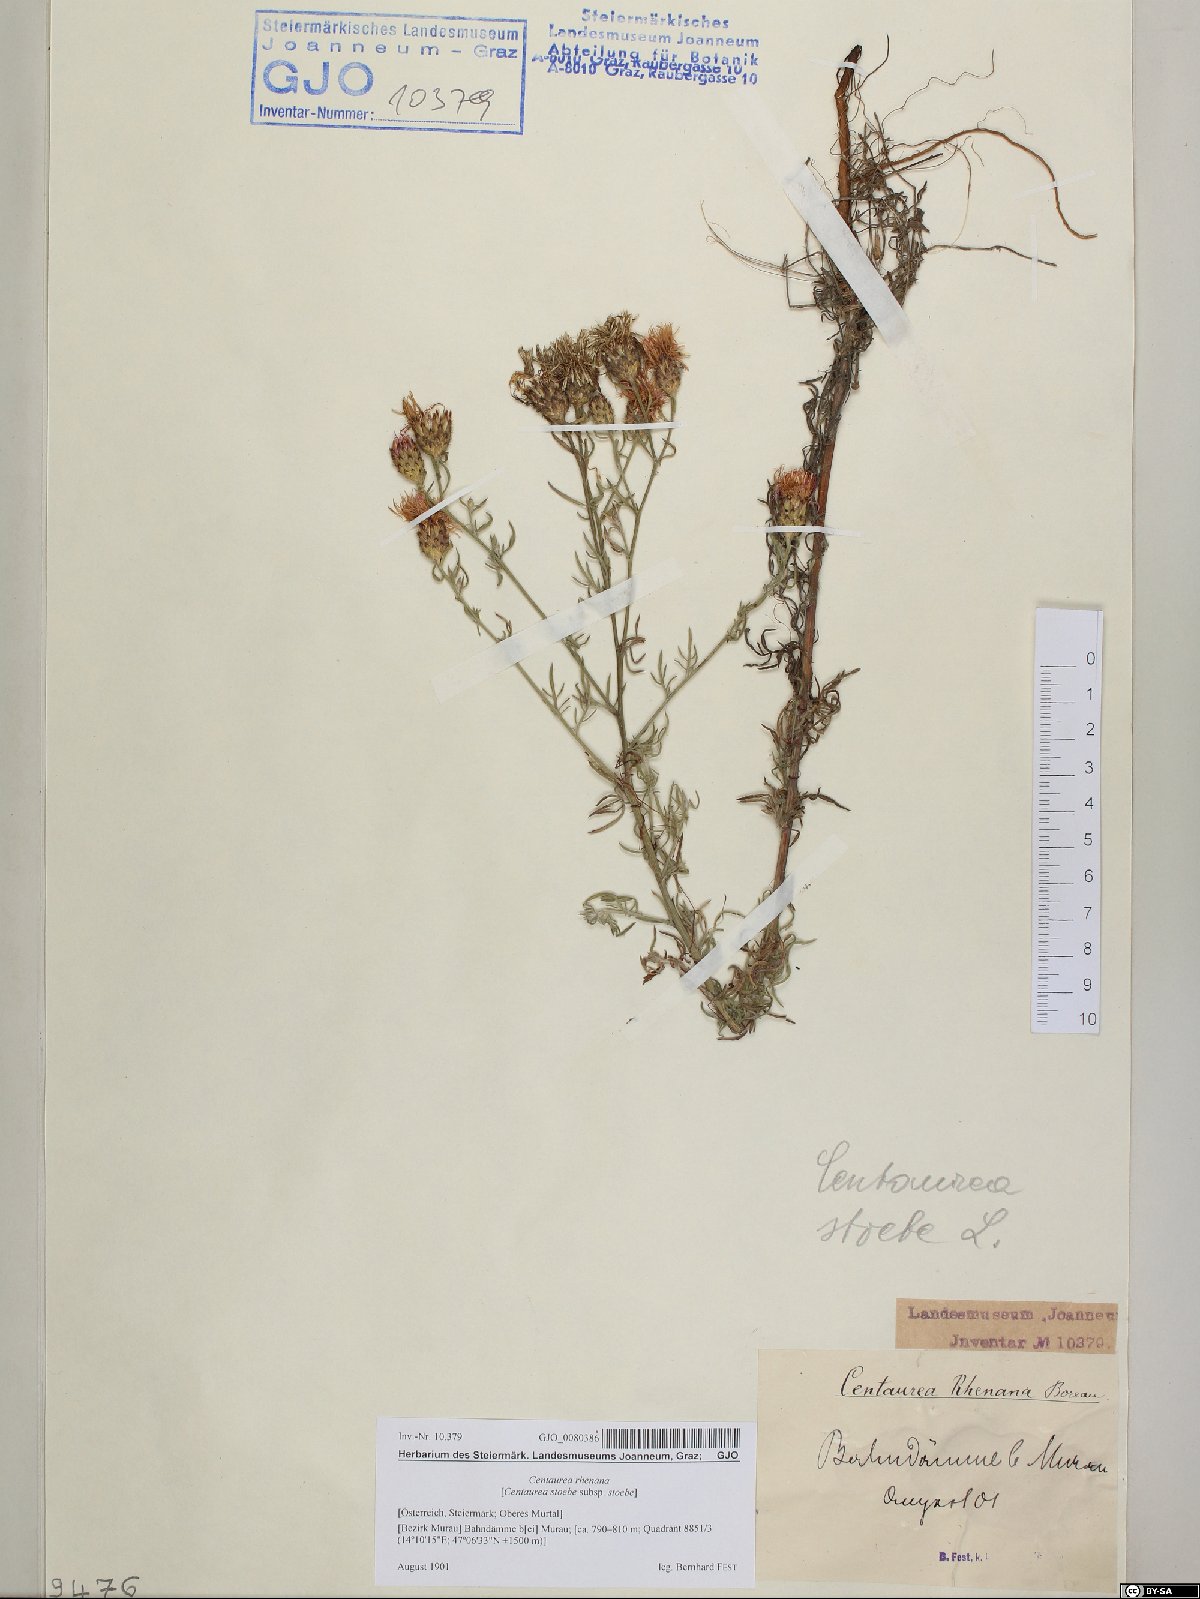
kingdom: Plantae
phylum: Tracheophyta
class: Magnoliopsida
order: Asterales
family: Asteraceae
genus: Centaurea
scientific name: Centaurea stoebe
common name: Spotted knapweed
